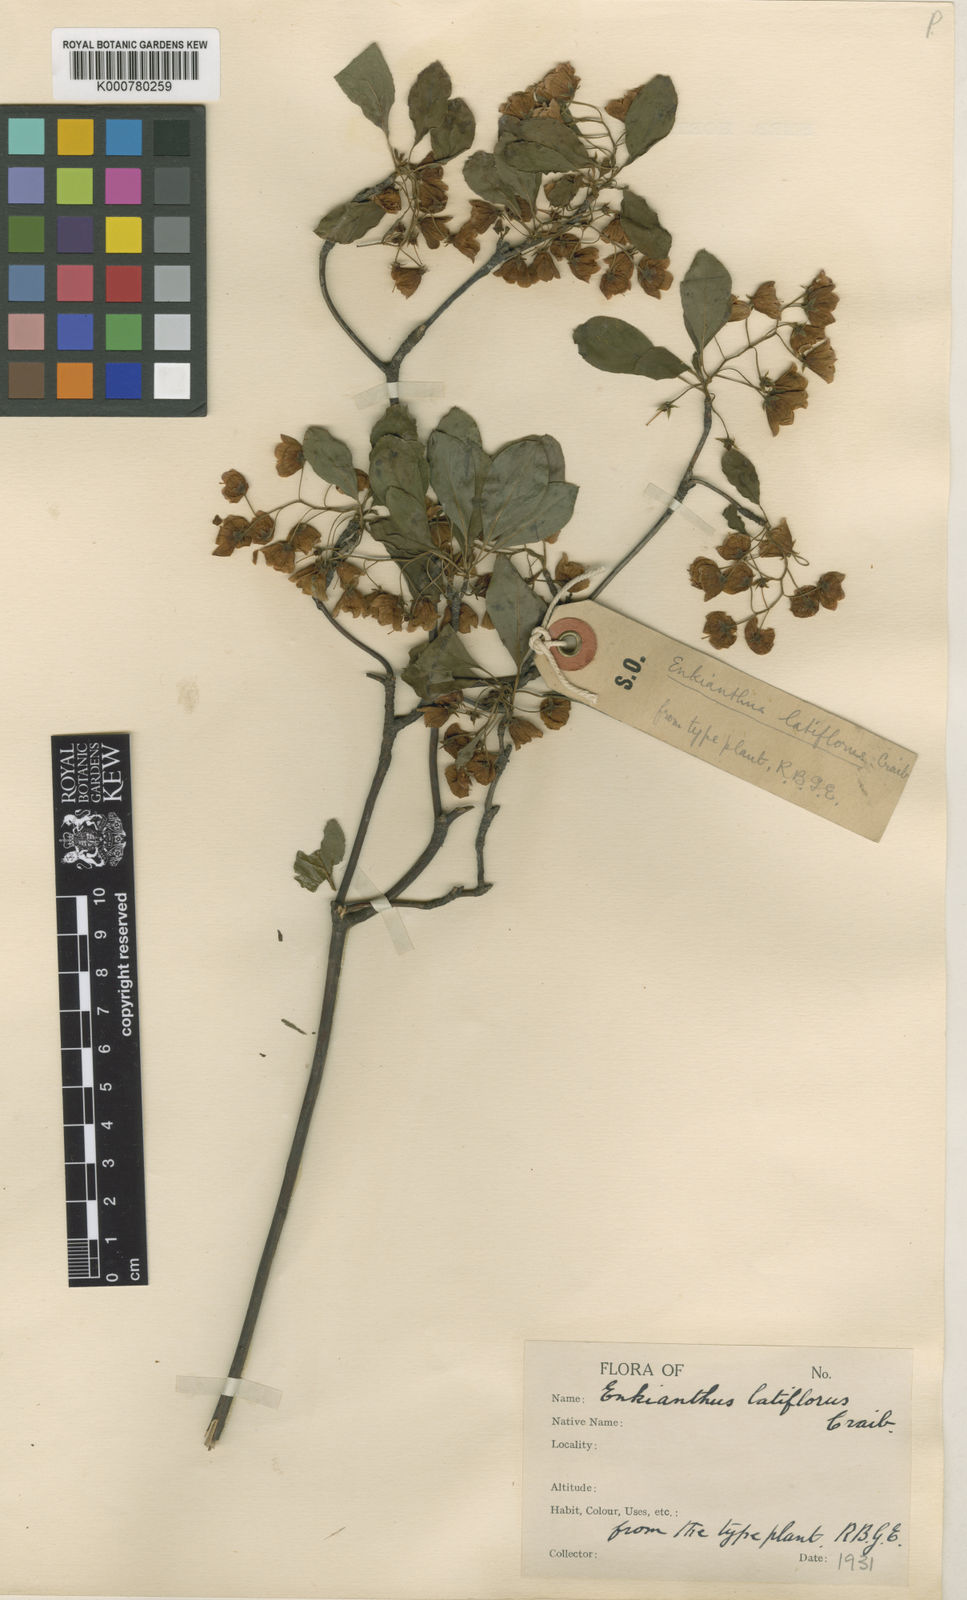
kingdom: Plantae
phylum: Tracheophyta
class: Magnoliopsida
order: Ericales
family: Ericaceae
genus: Enkianthus
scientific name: Enkianthus campanulatus
